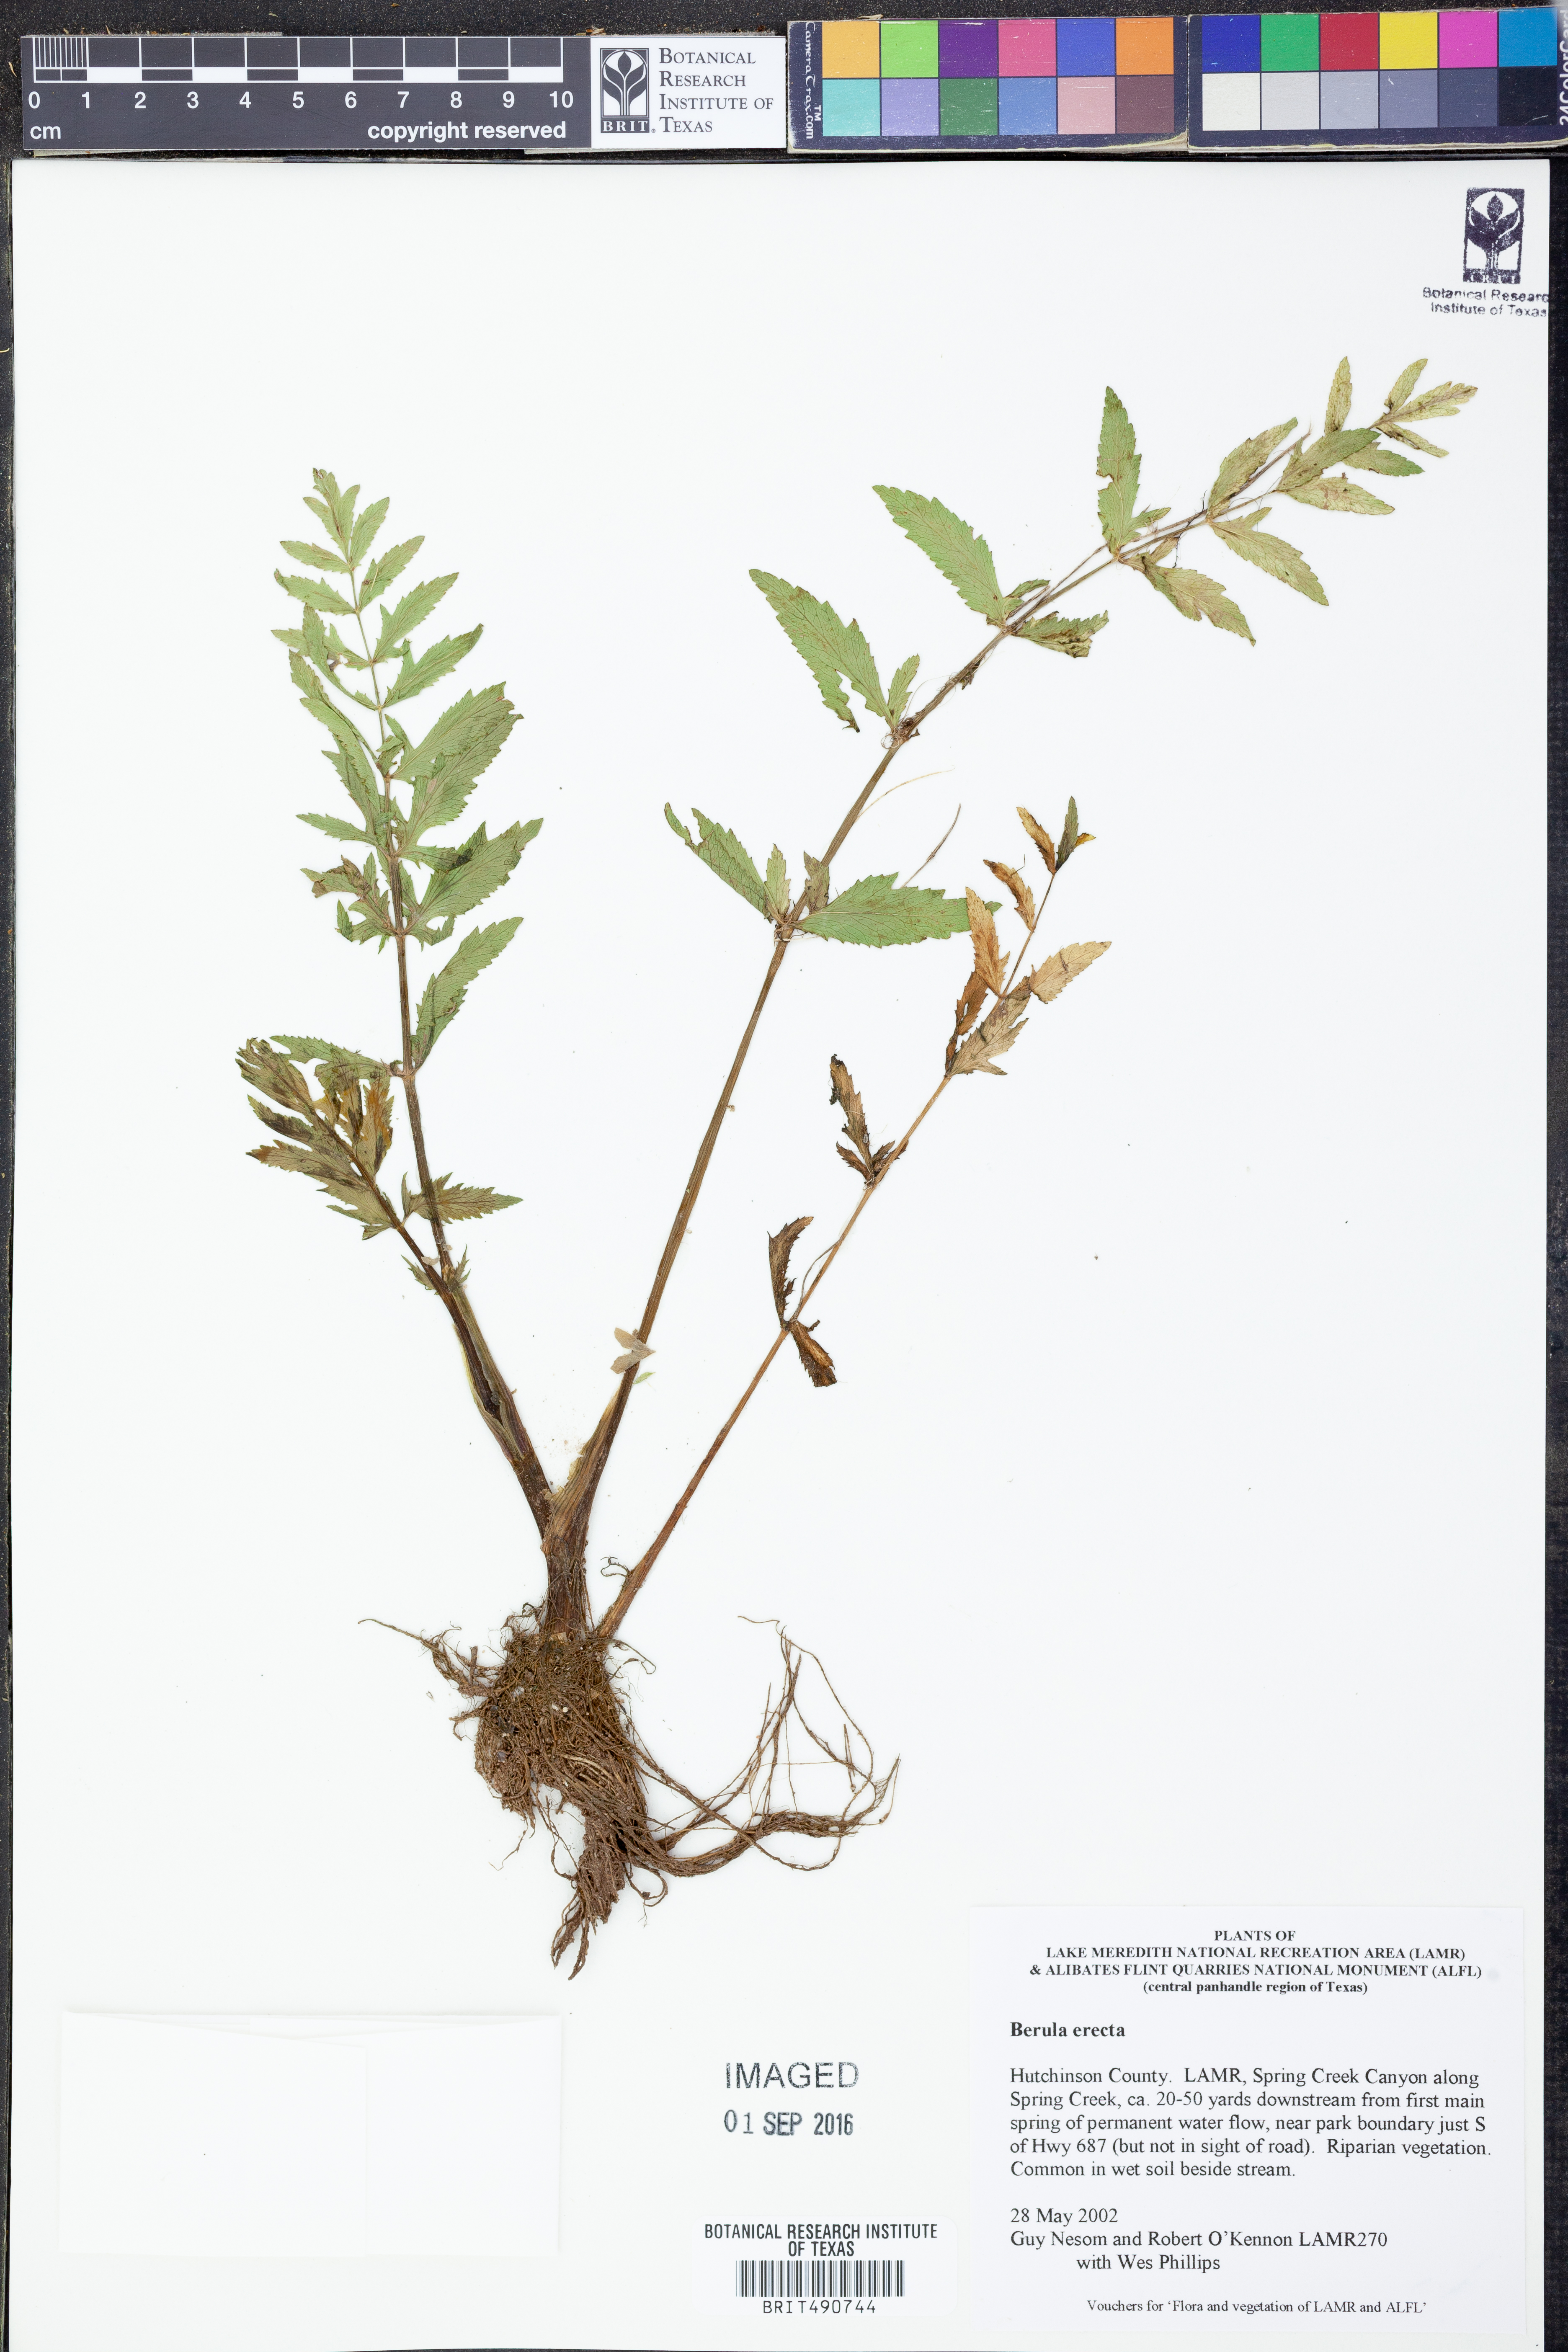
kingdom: Plantae
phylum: Tracheophyta
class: Magnoliopsida
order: Apiales
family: Apiaceae
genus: Berula
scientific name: Berula erecta
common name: Lesser water-parsnip
